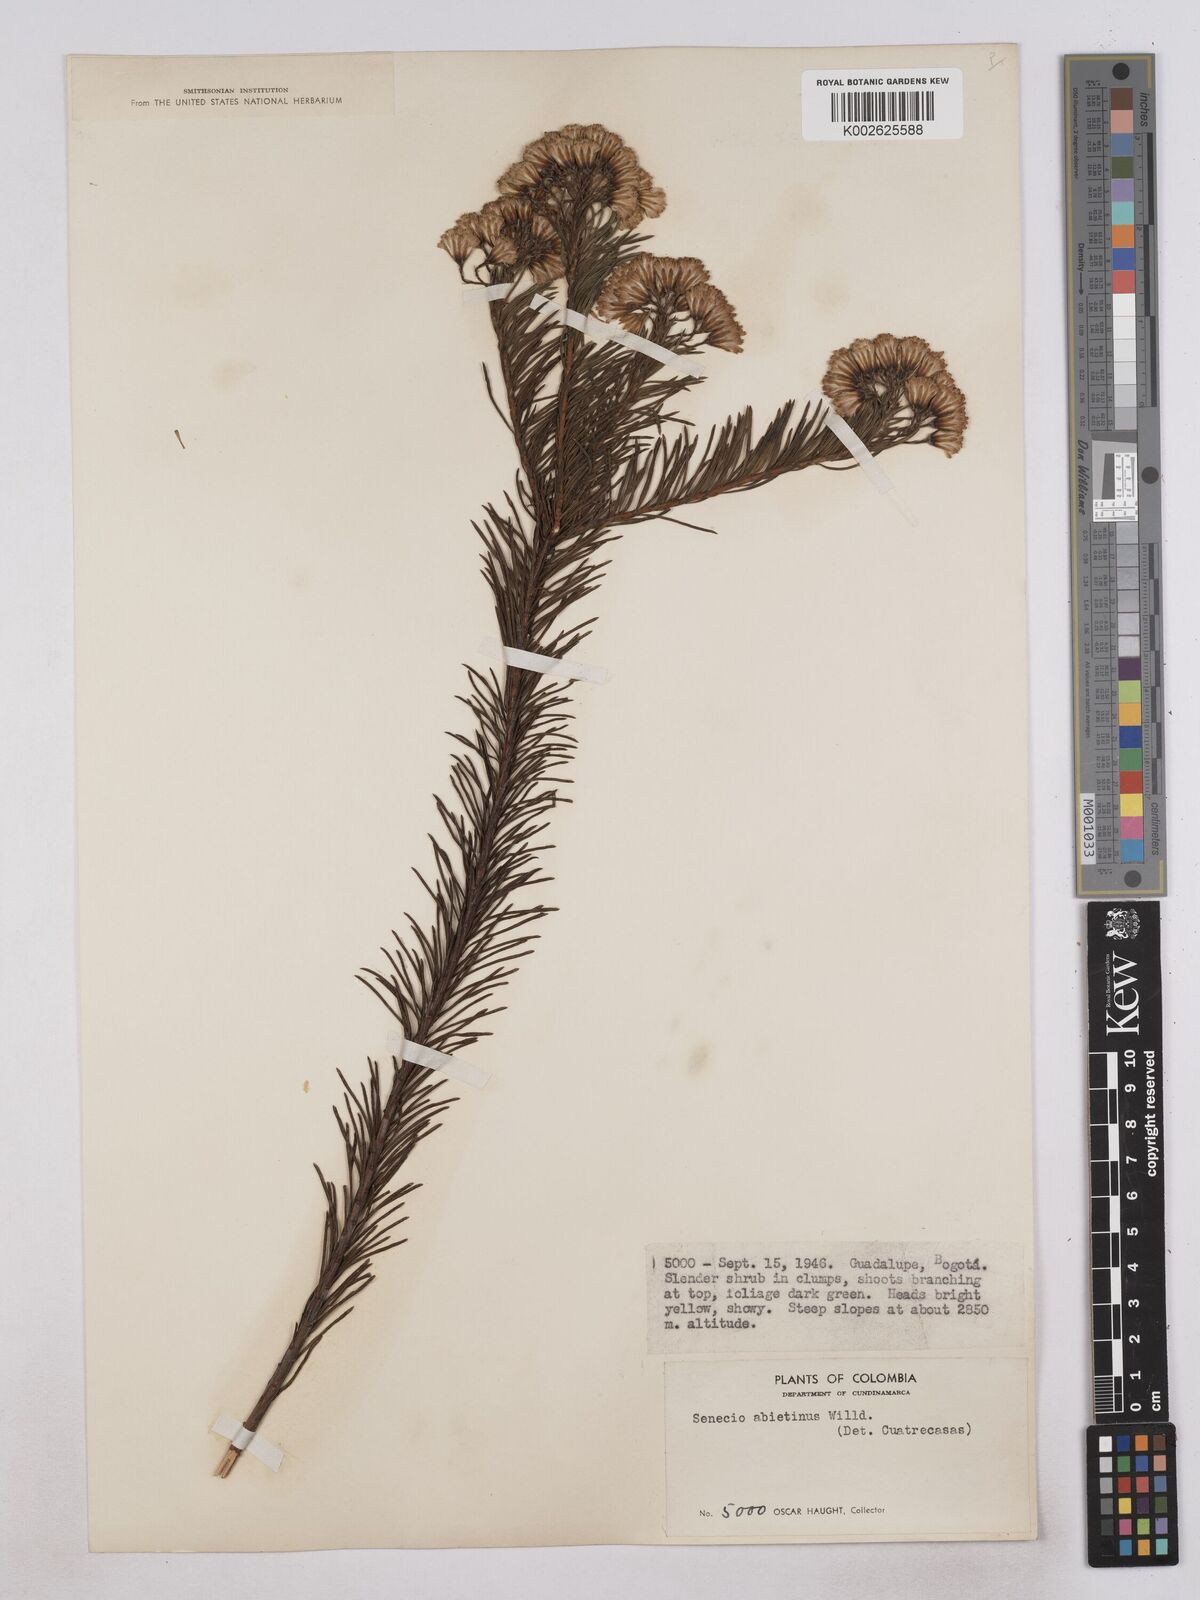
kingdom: Plantae
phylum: Tracheophyta
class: Magnoliopsida
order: Asterales
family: Asteraceae
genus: Monticalia
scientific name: Monticalia abietina
